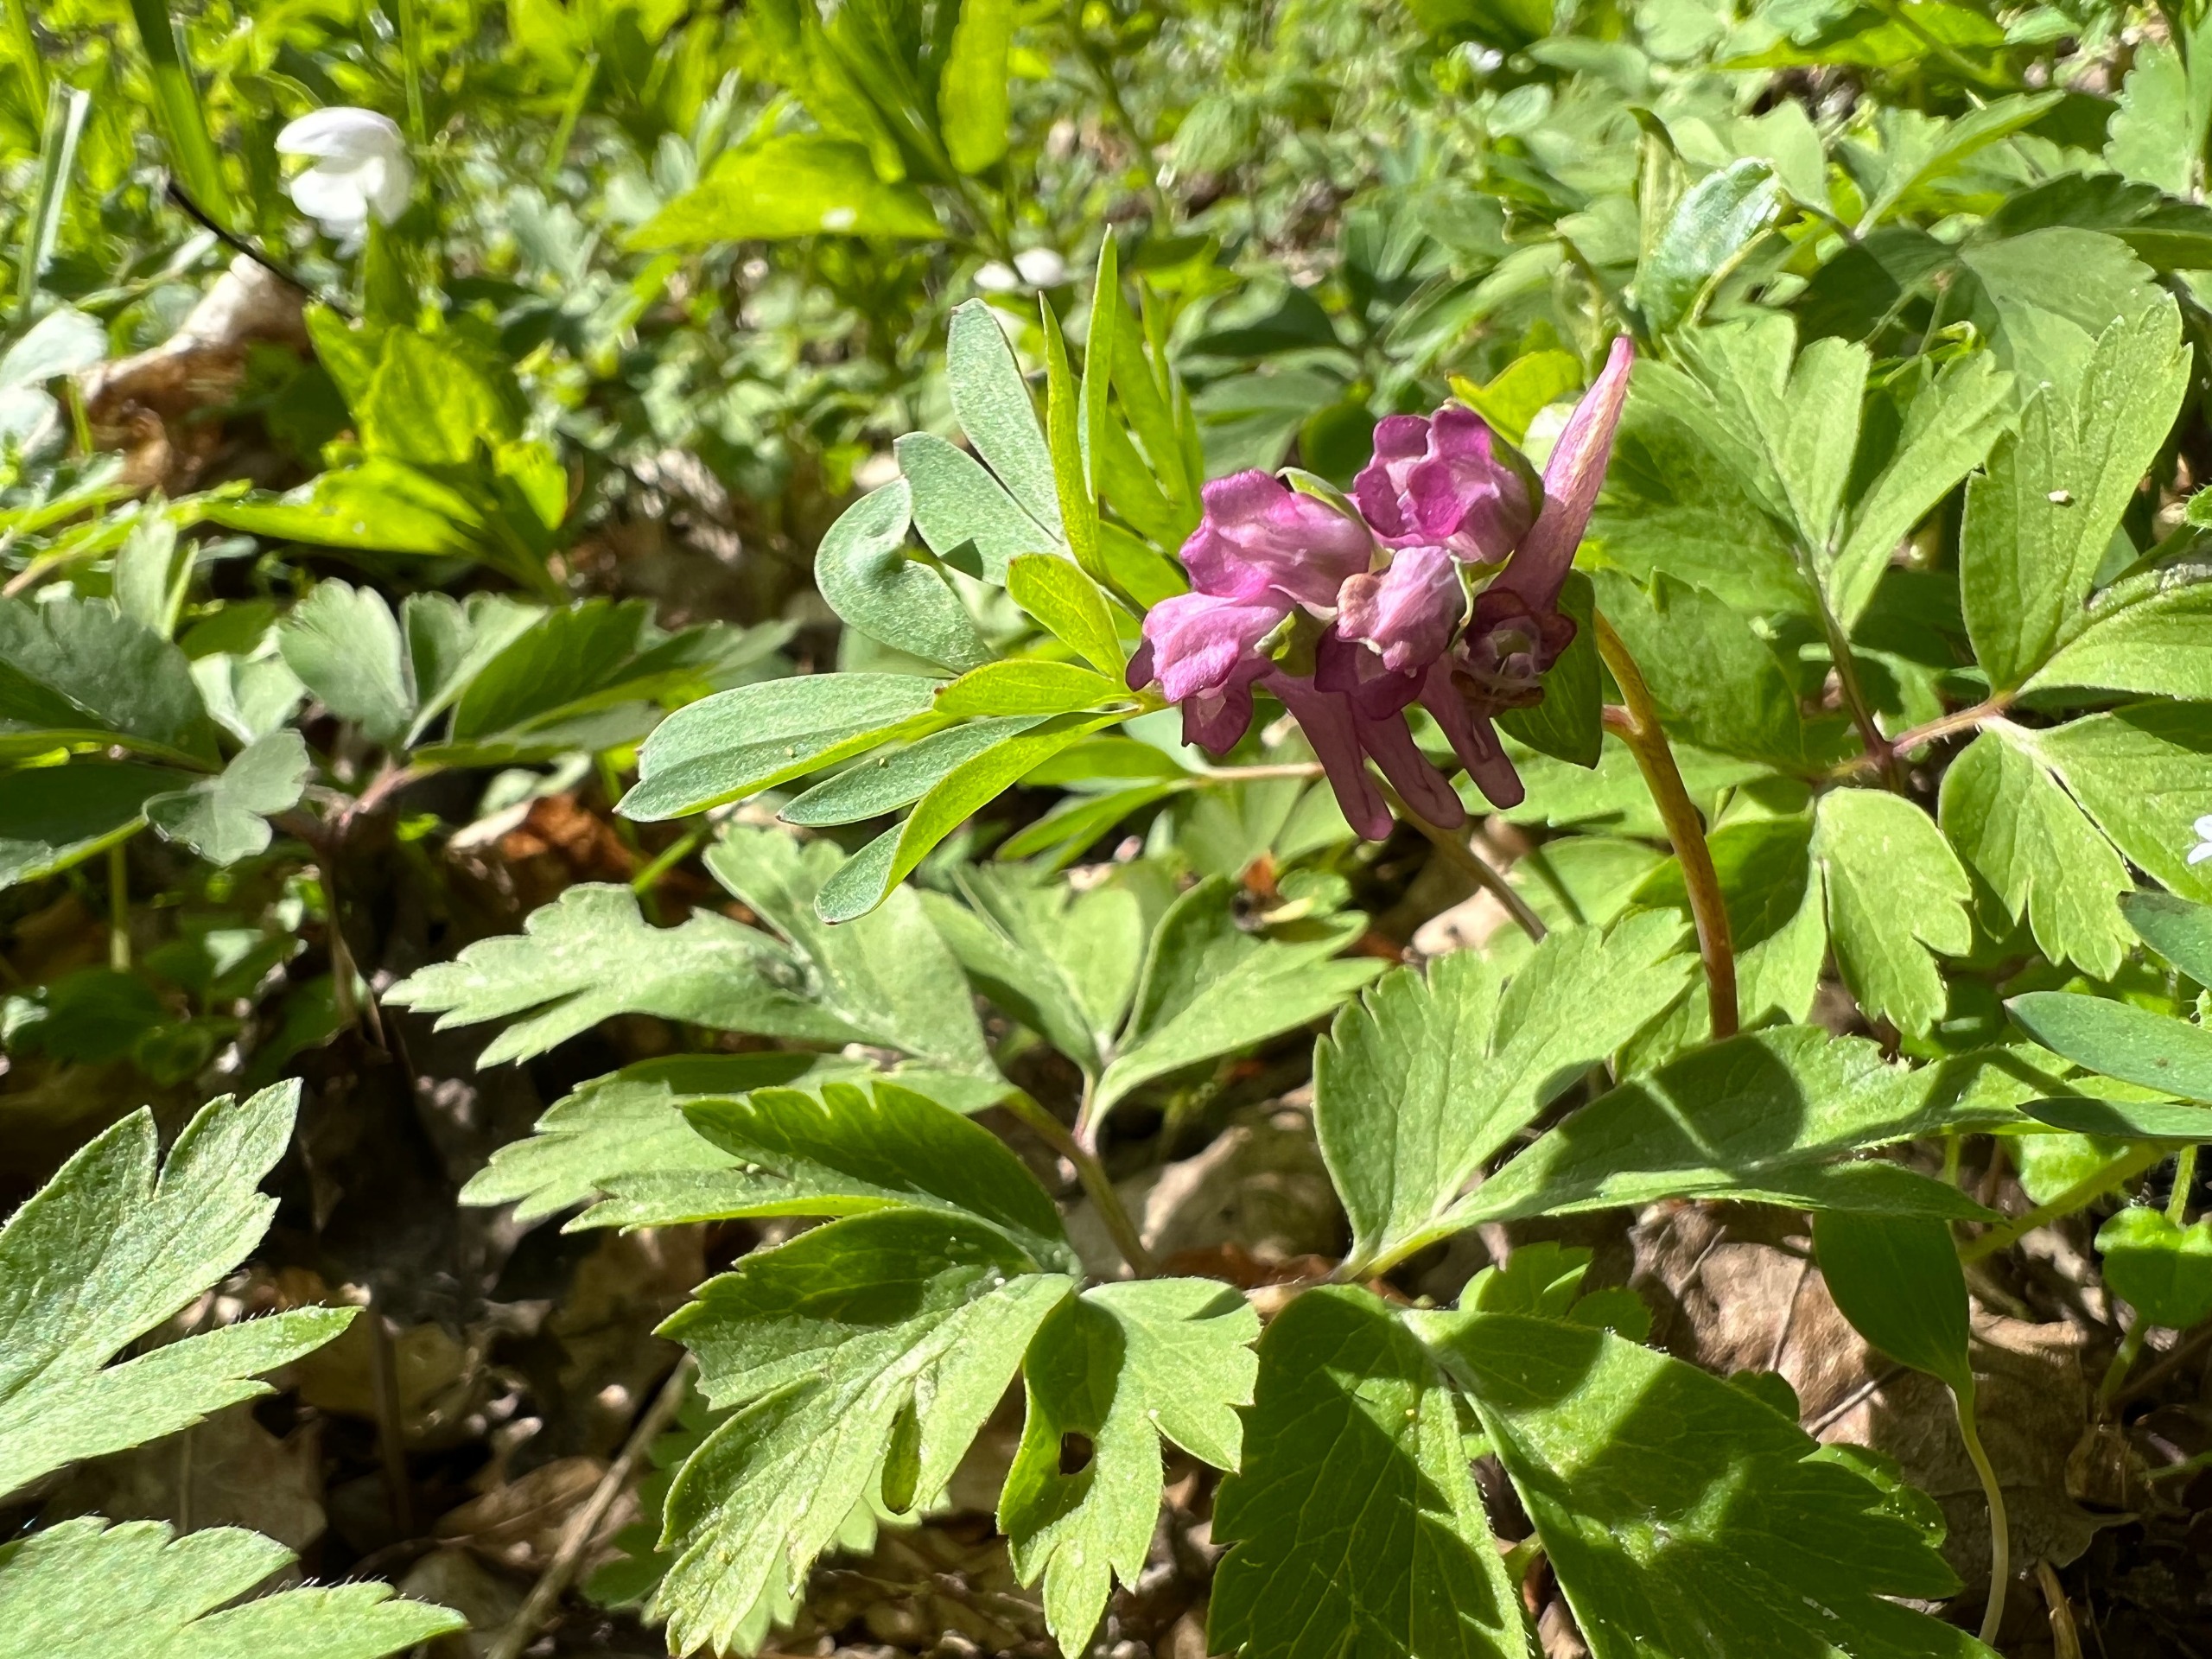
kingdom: Plantae
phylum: Tracheophyta
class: Magnoliopsida
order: Ranunculales
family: Papaveraceae
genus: Corydalis
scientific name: Corydalis intermedia
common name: Liden lærkespore
